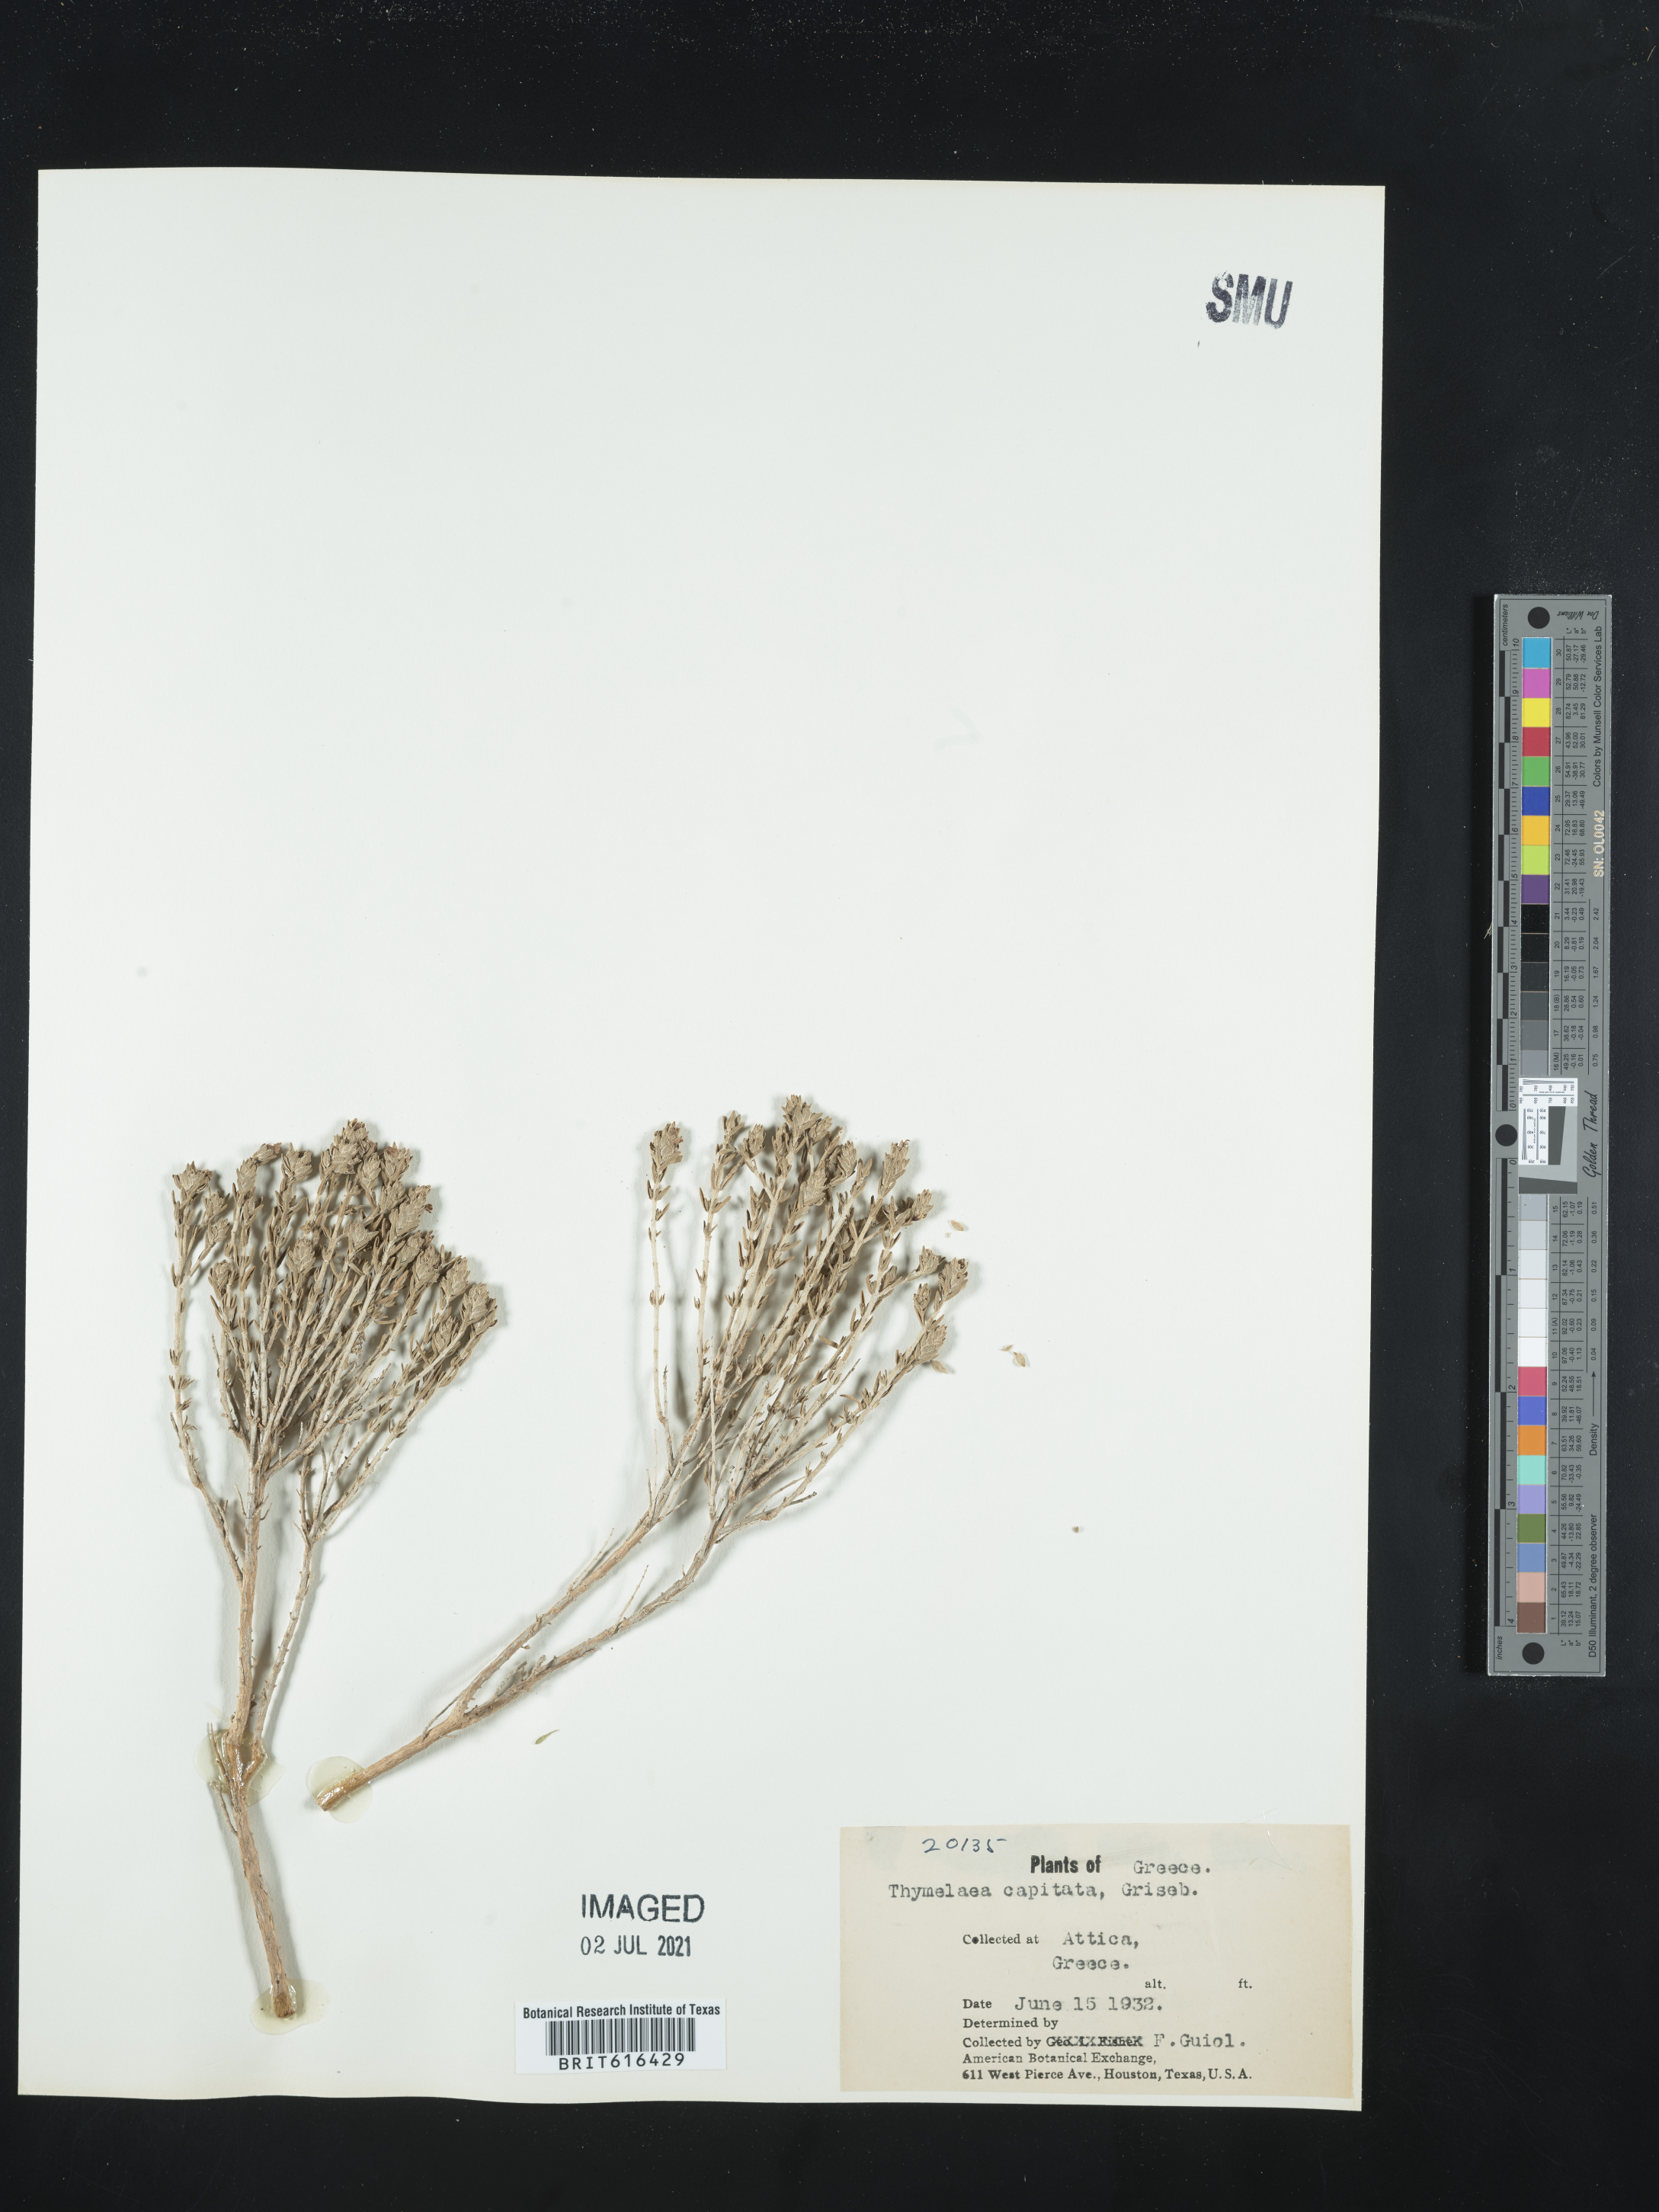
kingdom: Plantae
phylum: Tracheophyta
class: Magnoliopsida
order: Malvales
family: Thymelaeaceae
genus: Thymelaea
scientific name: Thymelaea
